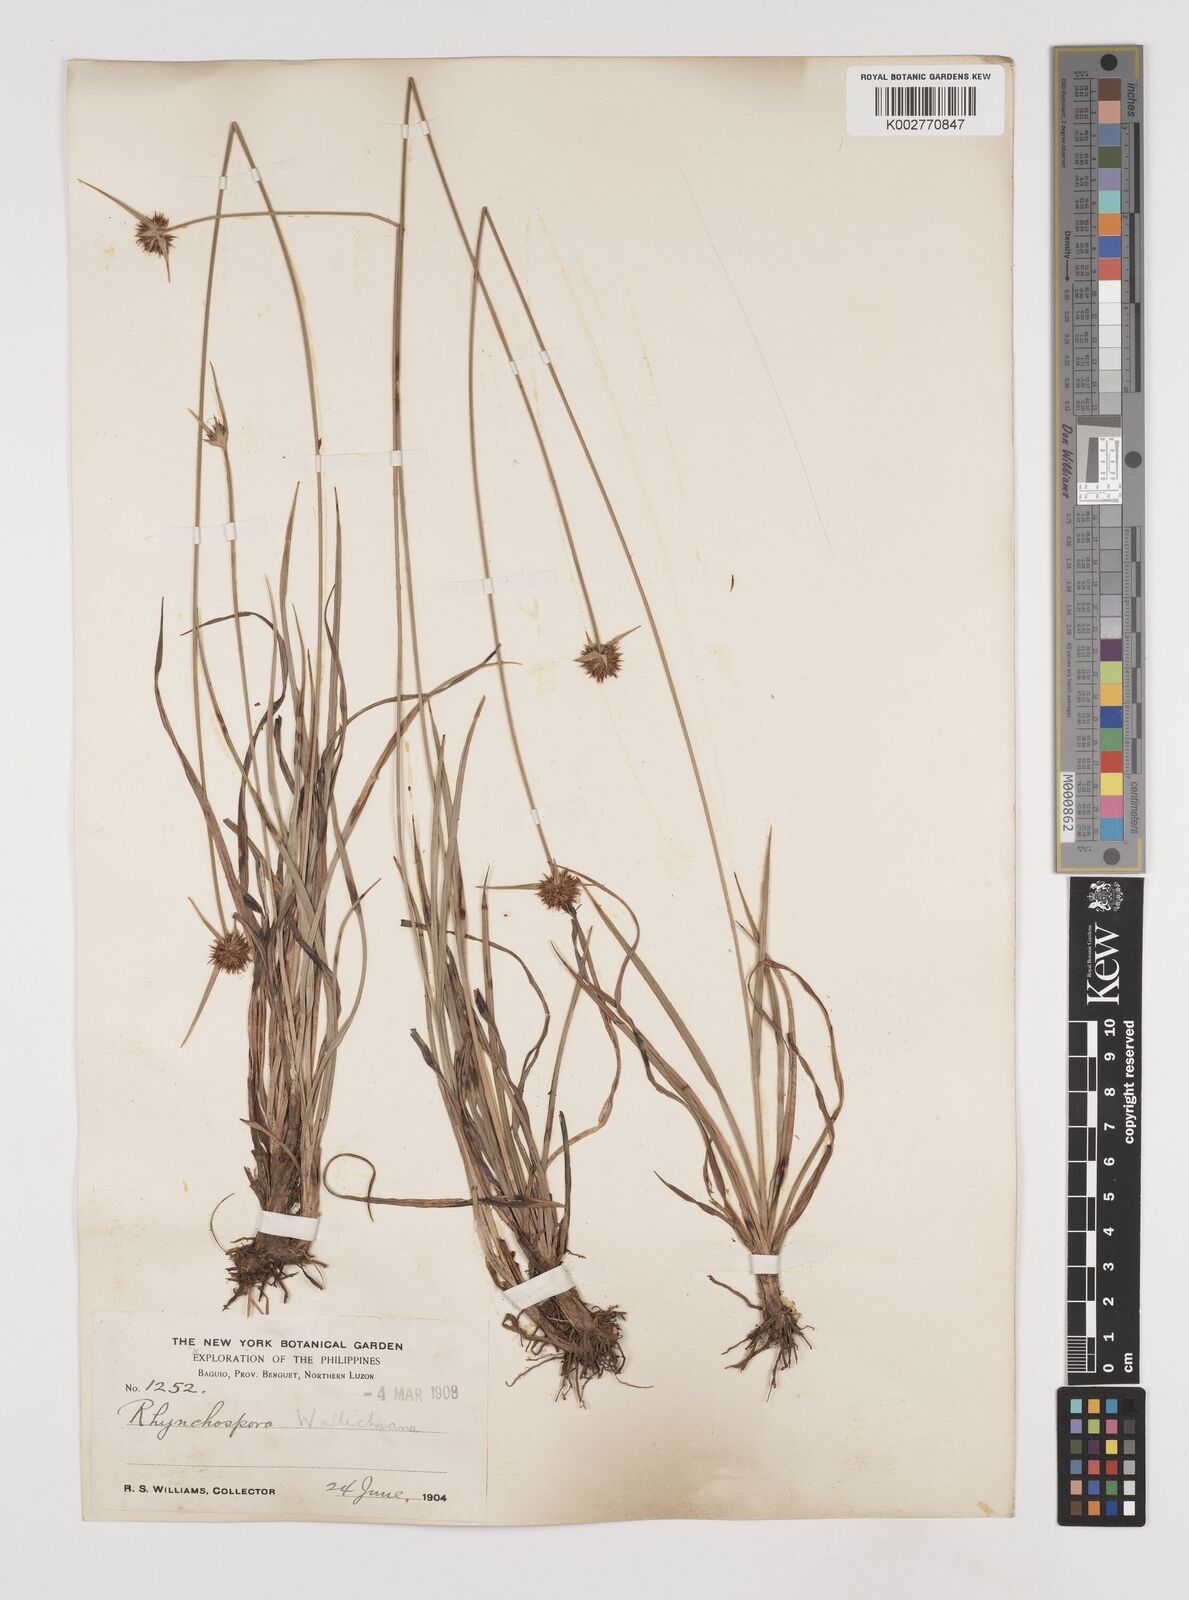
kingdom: Plantae
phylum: Tracheophyta
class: Liliopsida
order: Poales
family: Cyperaceae
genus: Rhynchospora
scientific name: Rhynchospora rubra
